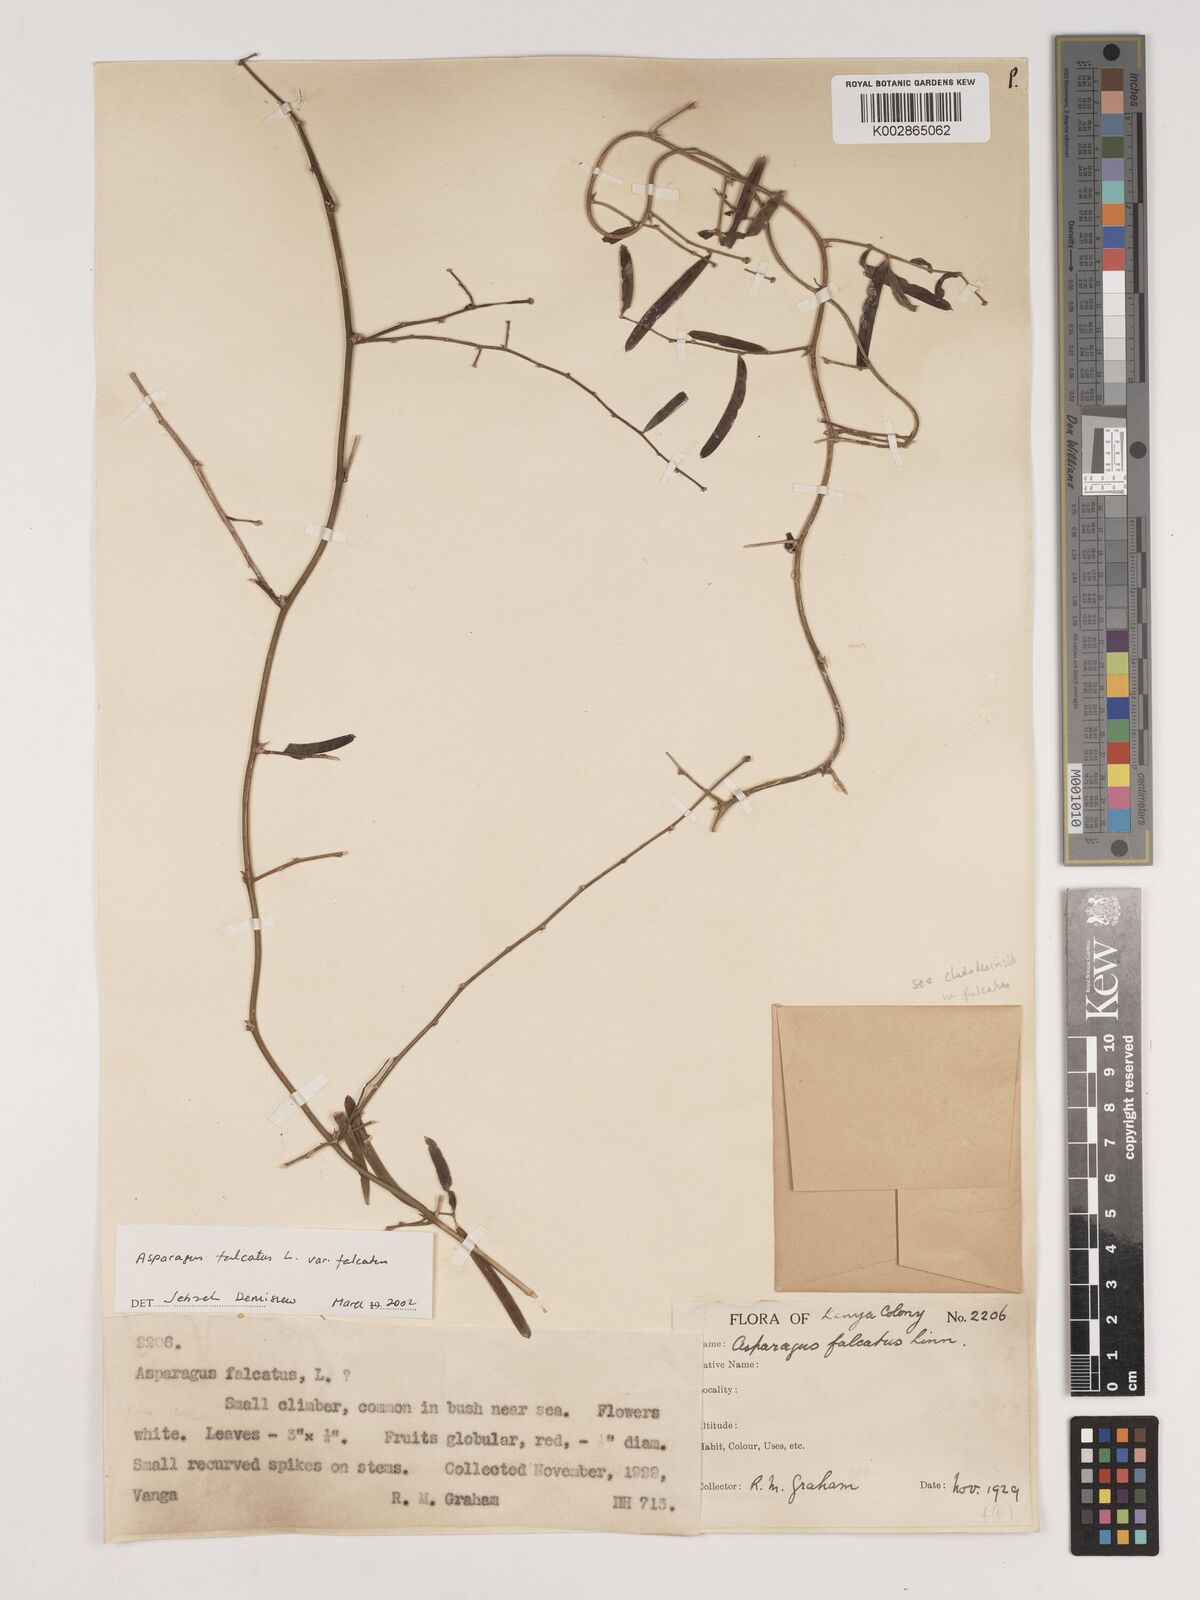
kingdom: Plantae
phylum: Tracheophyta
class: Liliopsida
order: Asparagales
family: Asparagaceae
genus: Asparagus
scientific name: Asparagus falcatus
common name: Asparagus
